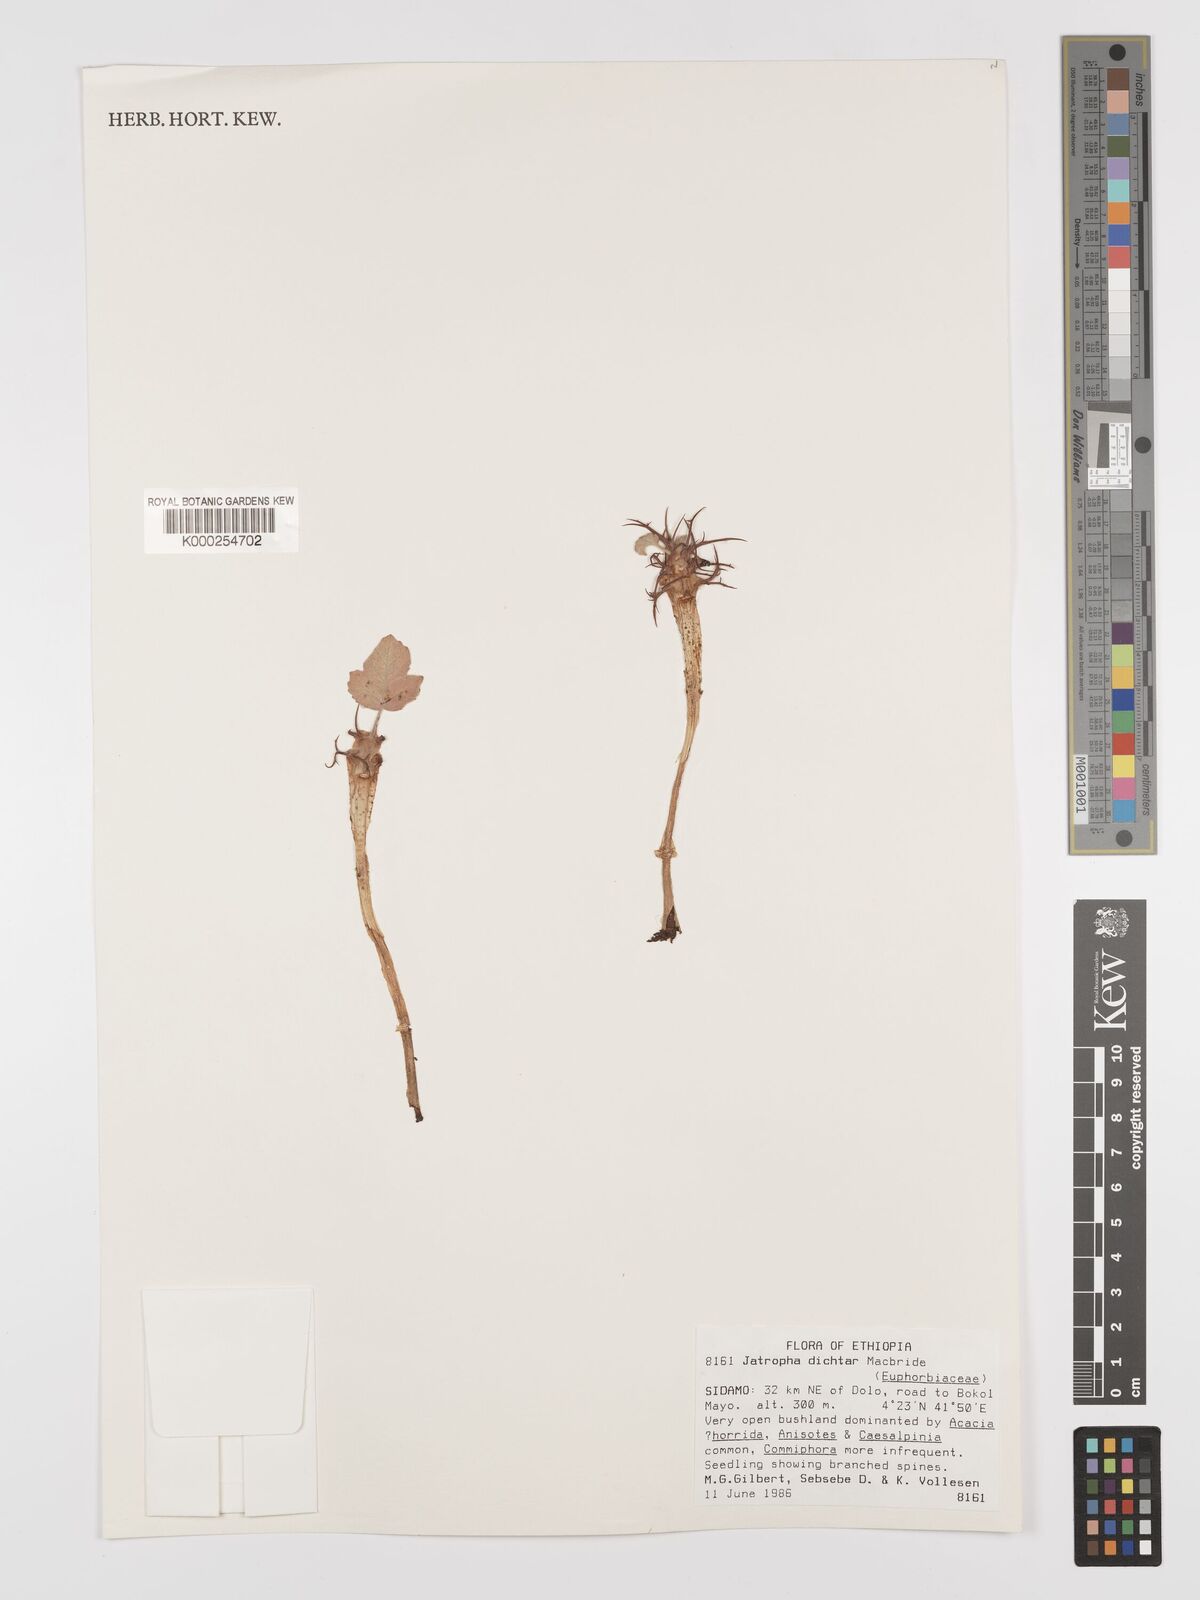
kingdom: Plantae
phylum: Tracheophyta
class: Magnoliopsida
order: Malpighiales
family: Euphorbiaceae
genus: Jatropha
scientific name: Jatropha dichtar
